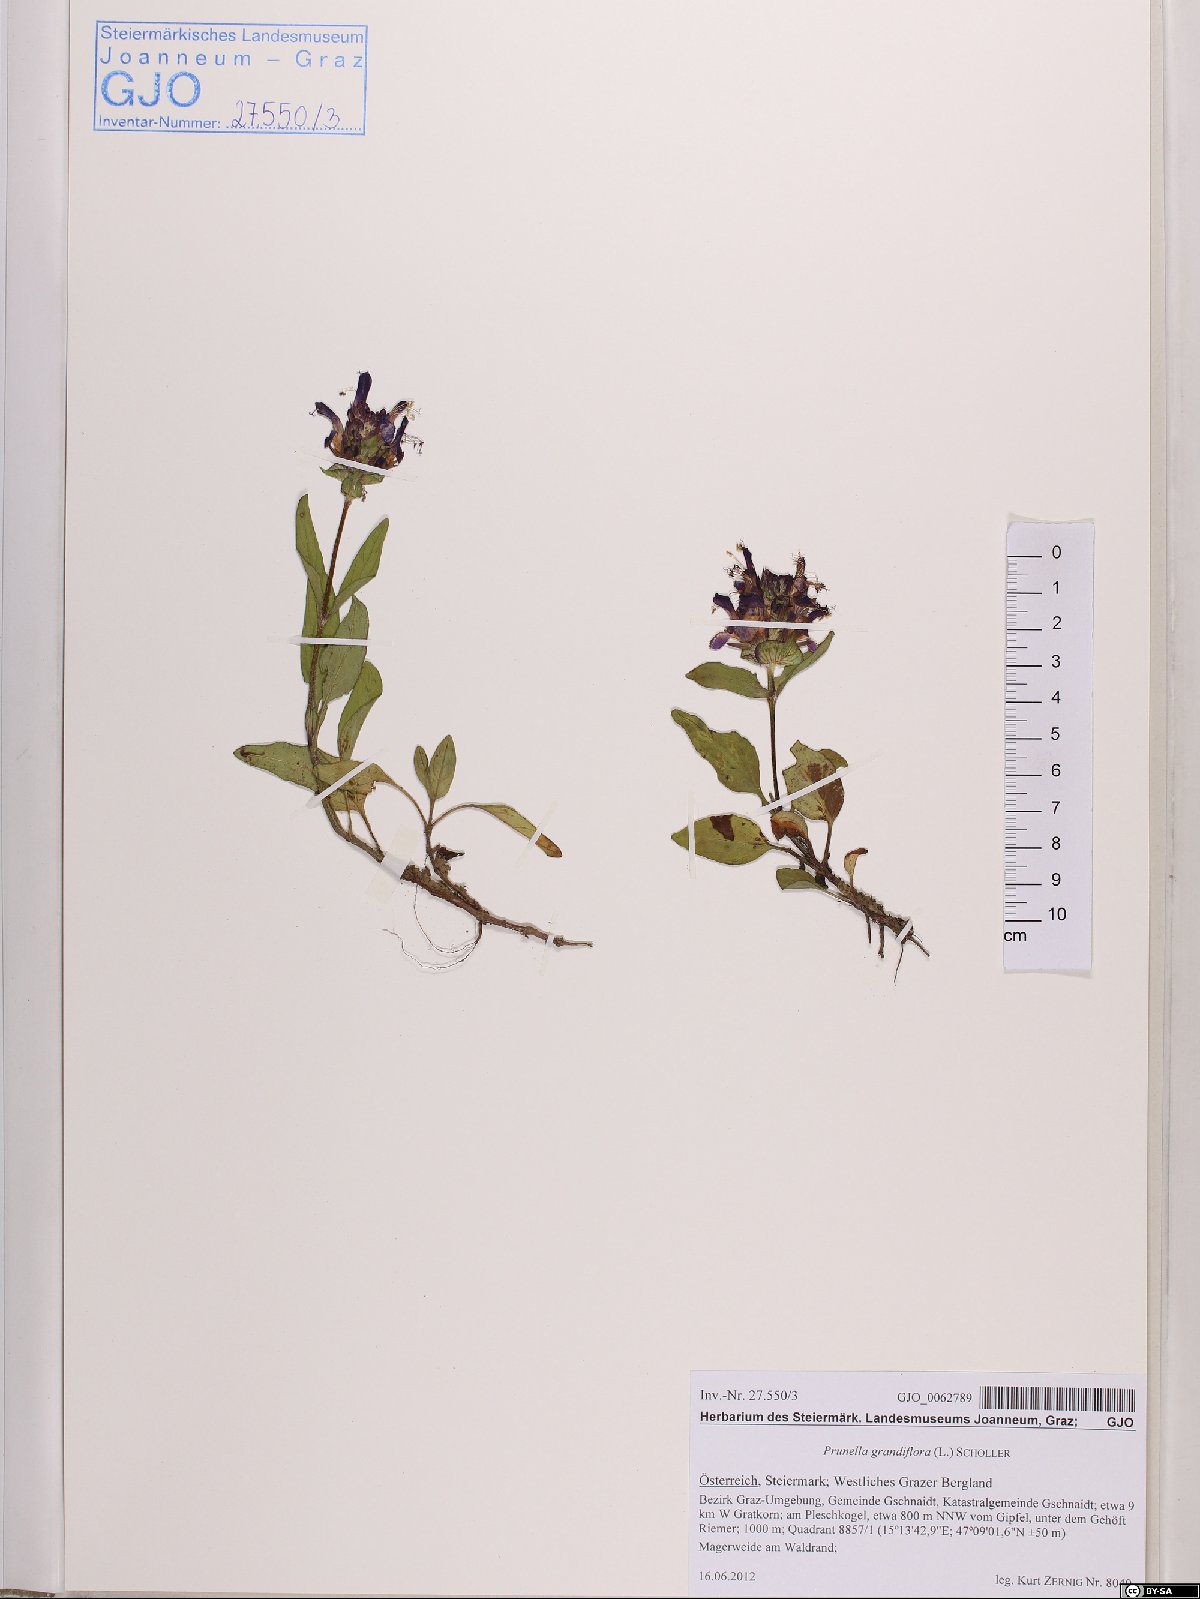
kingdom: Plantae
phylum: Tracheophyta
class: Magnoliopsida
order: Lamiales
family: Lamiaceae
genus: Prunella
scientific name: Prunella grandiflora
